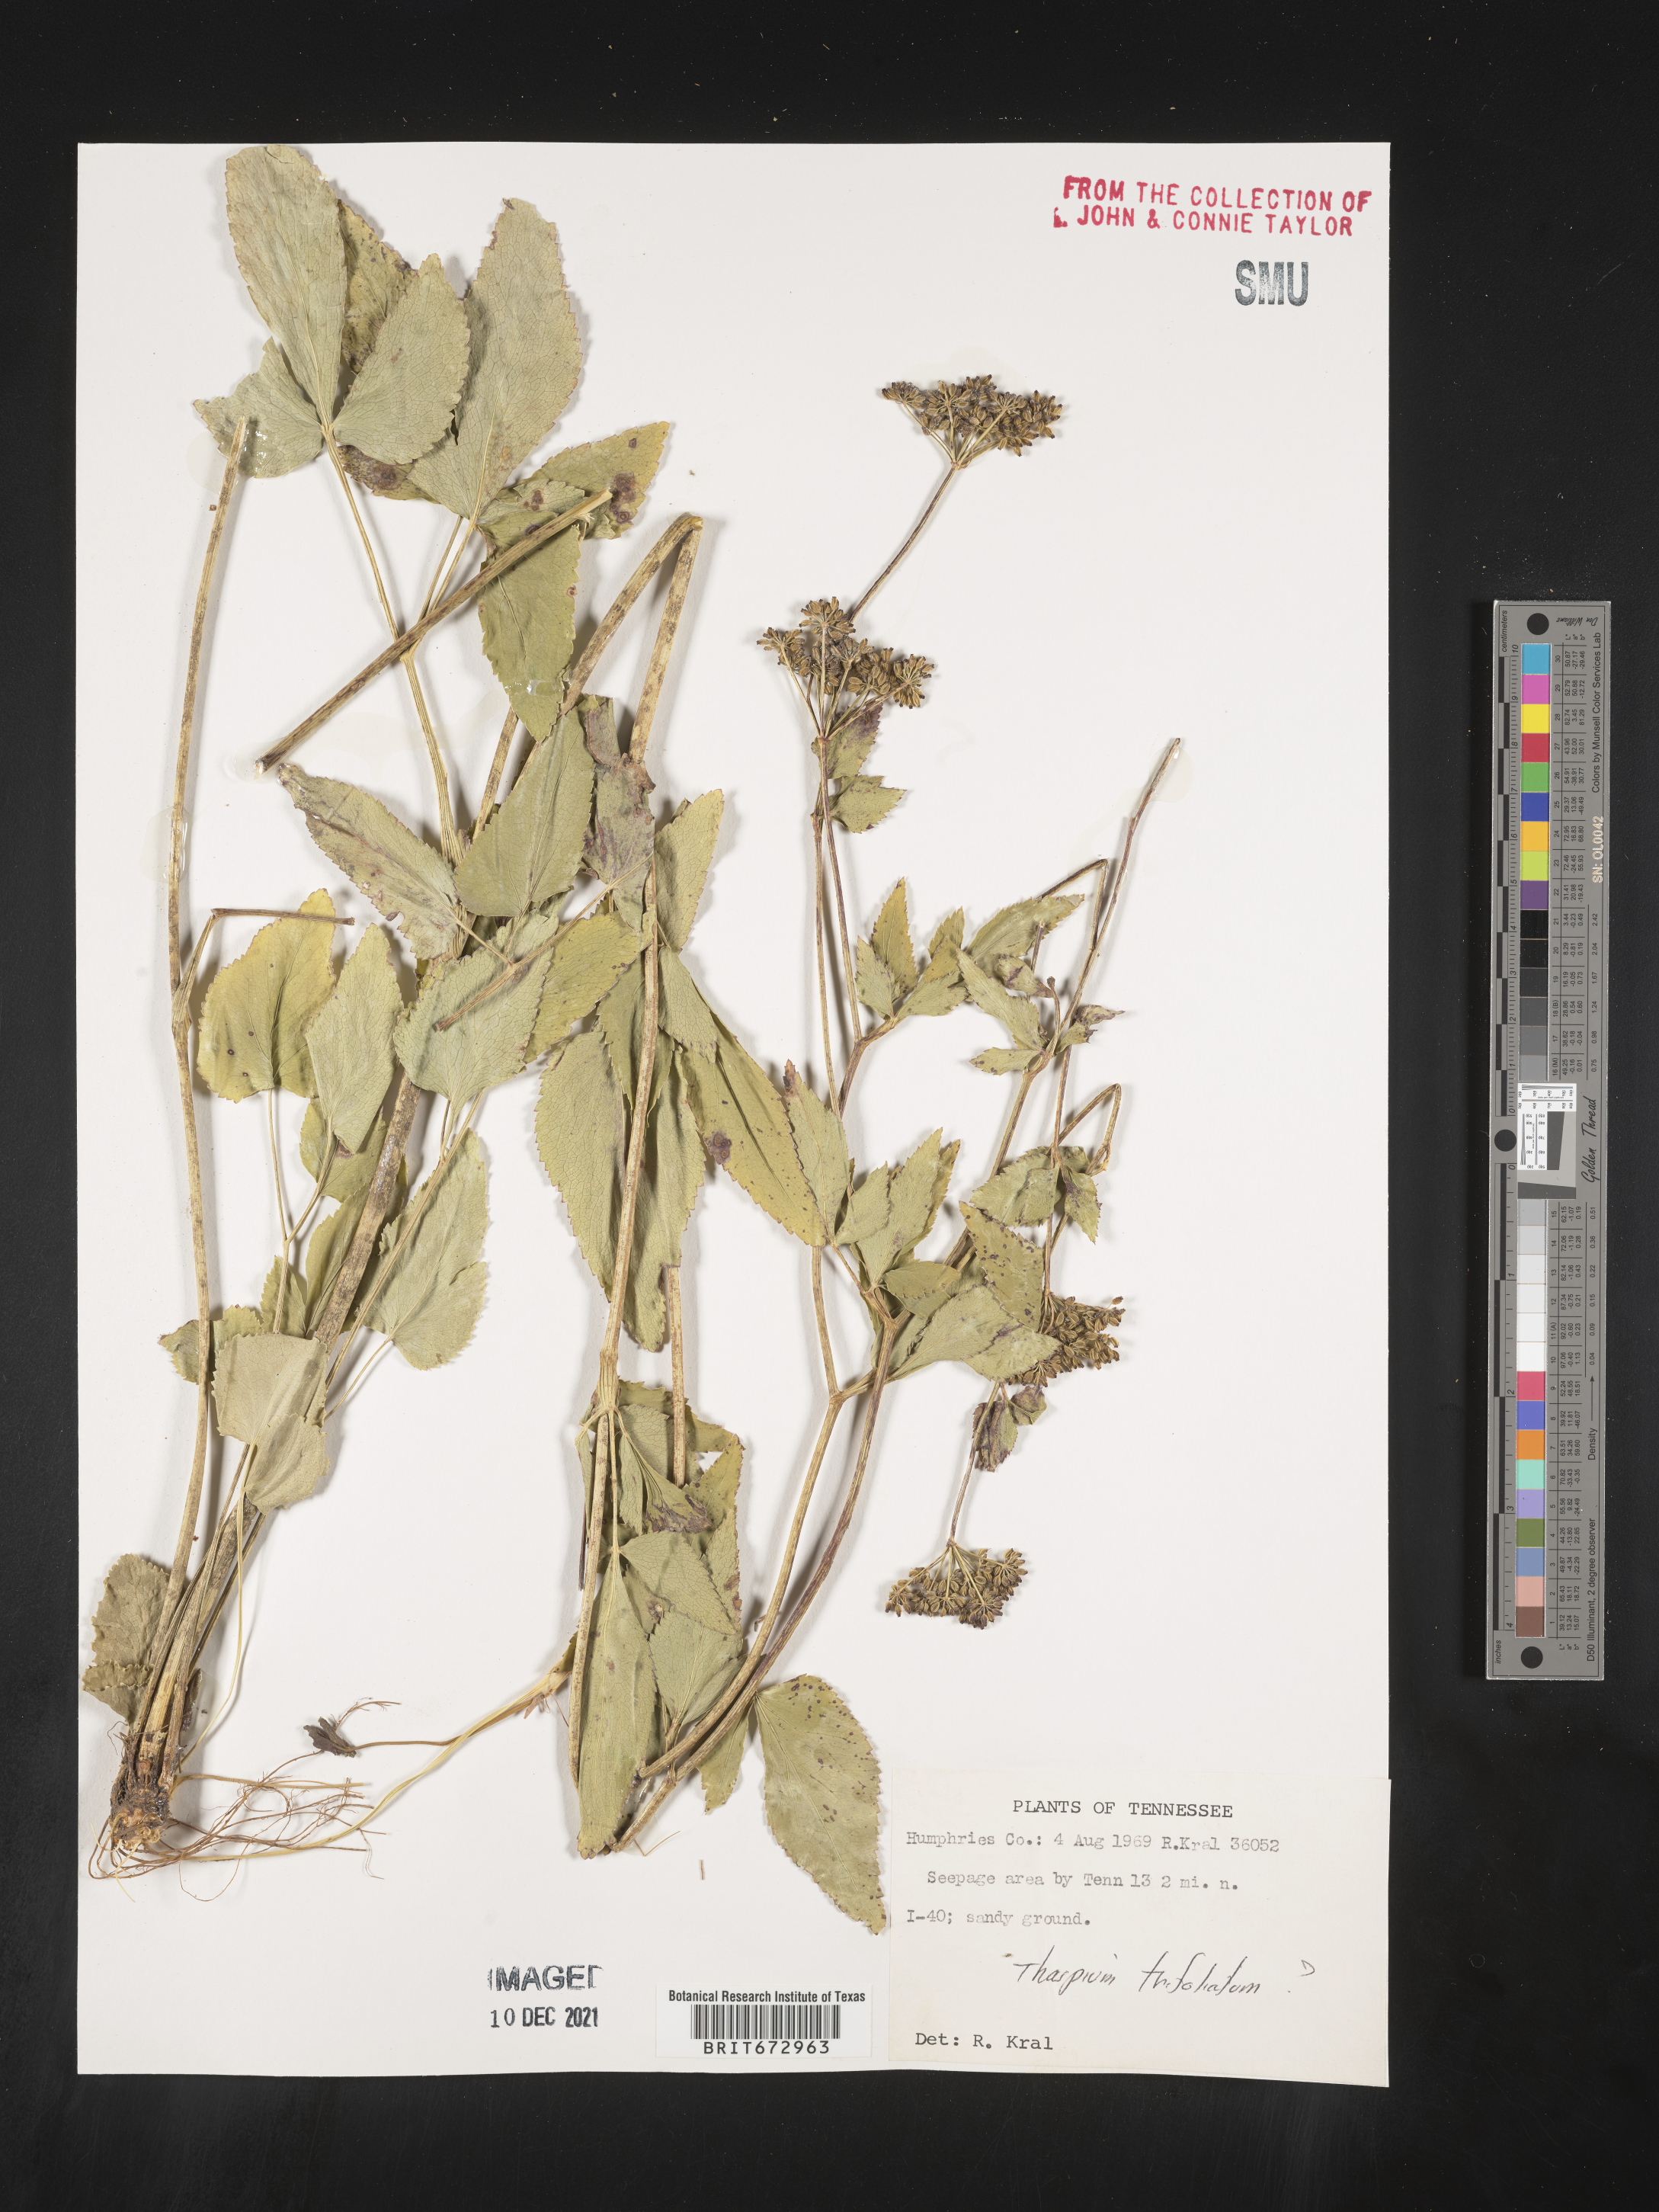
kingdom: Plantae
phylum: Tracheophyta
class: Magnoliopsida
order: Apiales
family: Apiaceae
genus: Thaspium
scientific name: Thaspium
